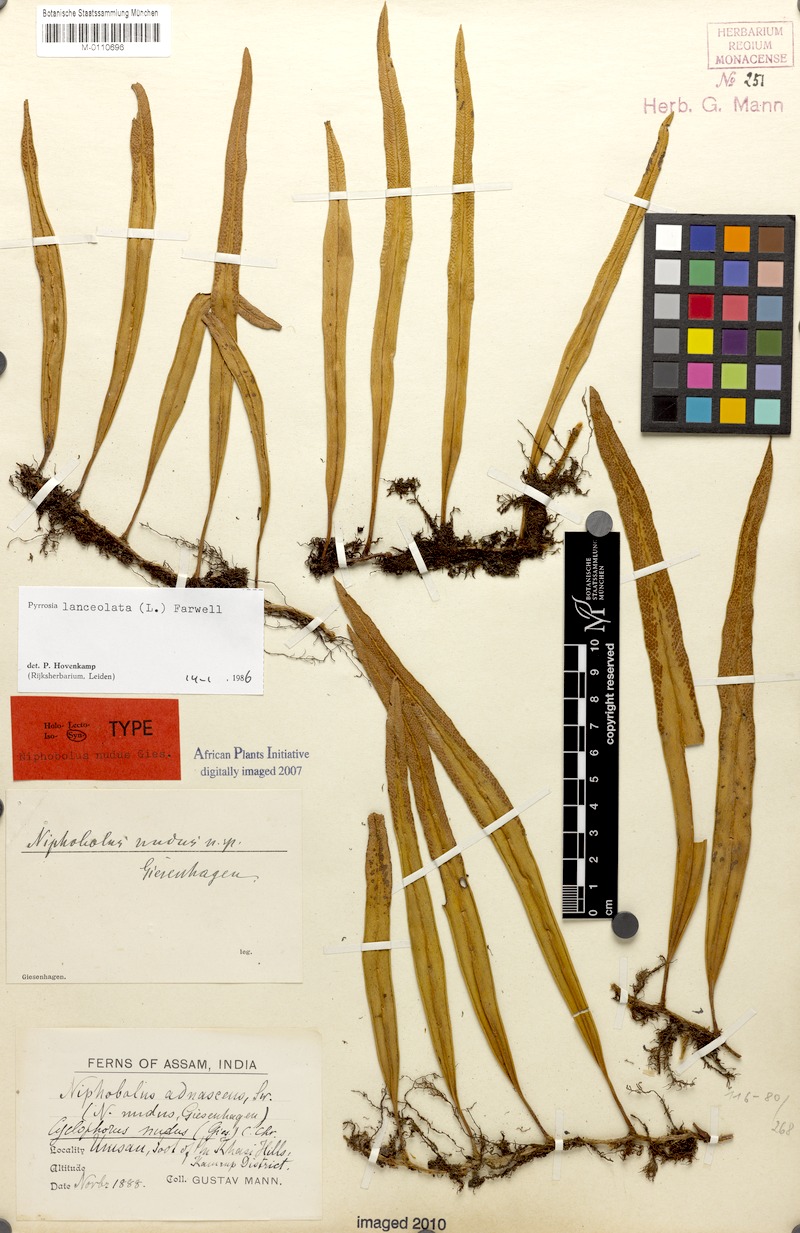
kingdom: Plantae
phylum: Tracheophyta
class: Polypodiopsida
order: Polypodiales
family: Polypodiaceae
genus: Pyrrosia
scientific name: Pyrrosia lanceolata
